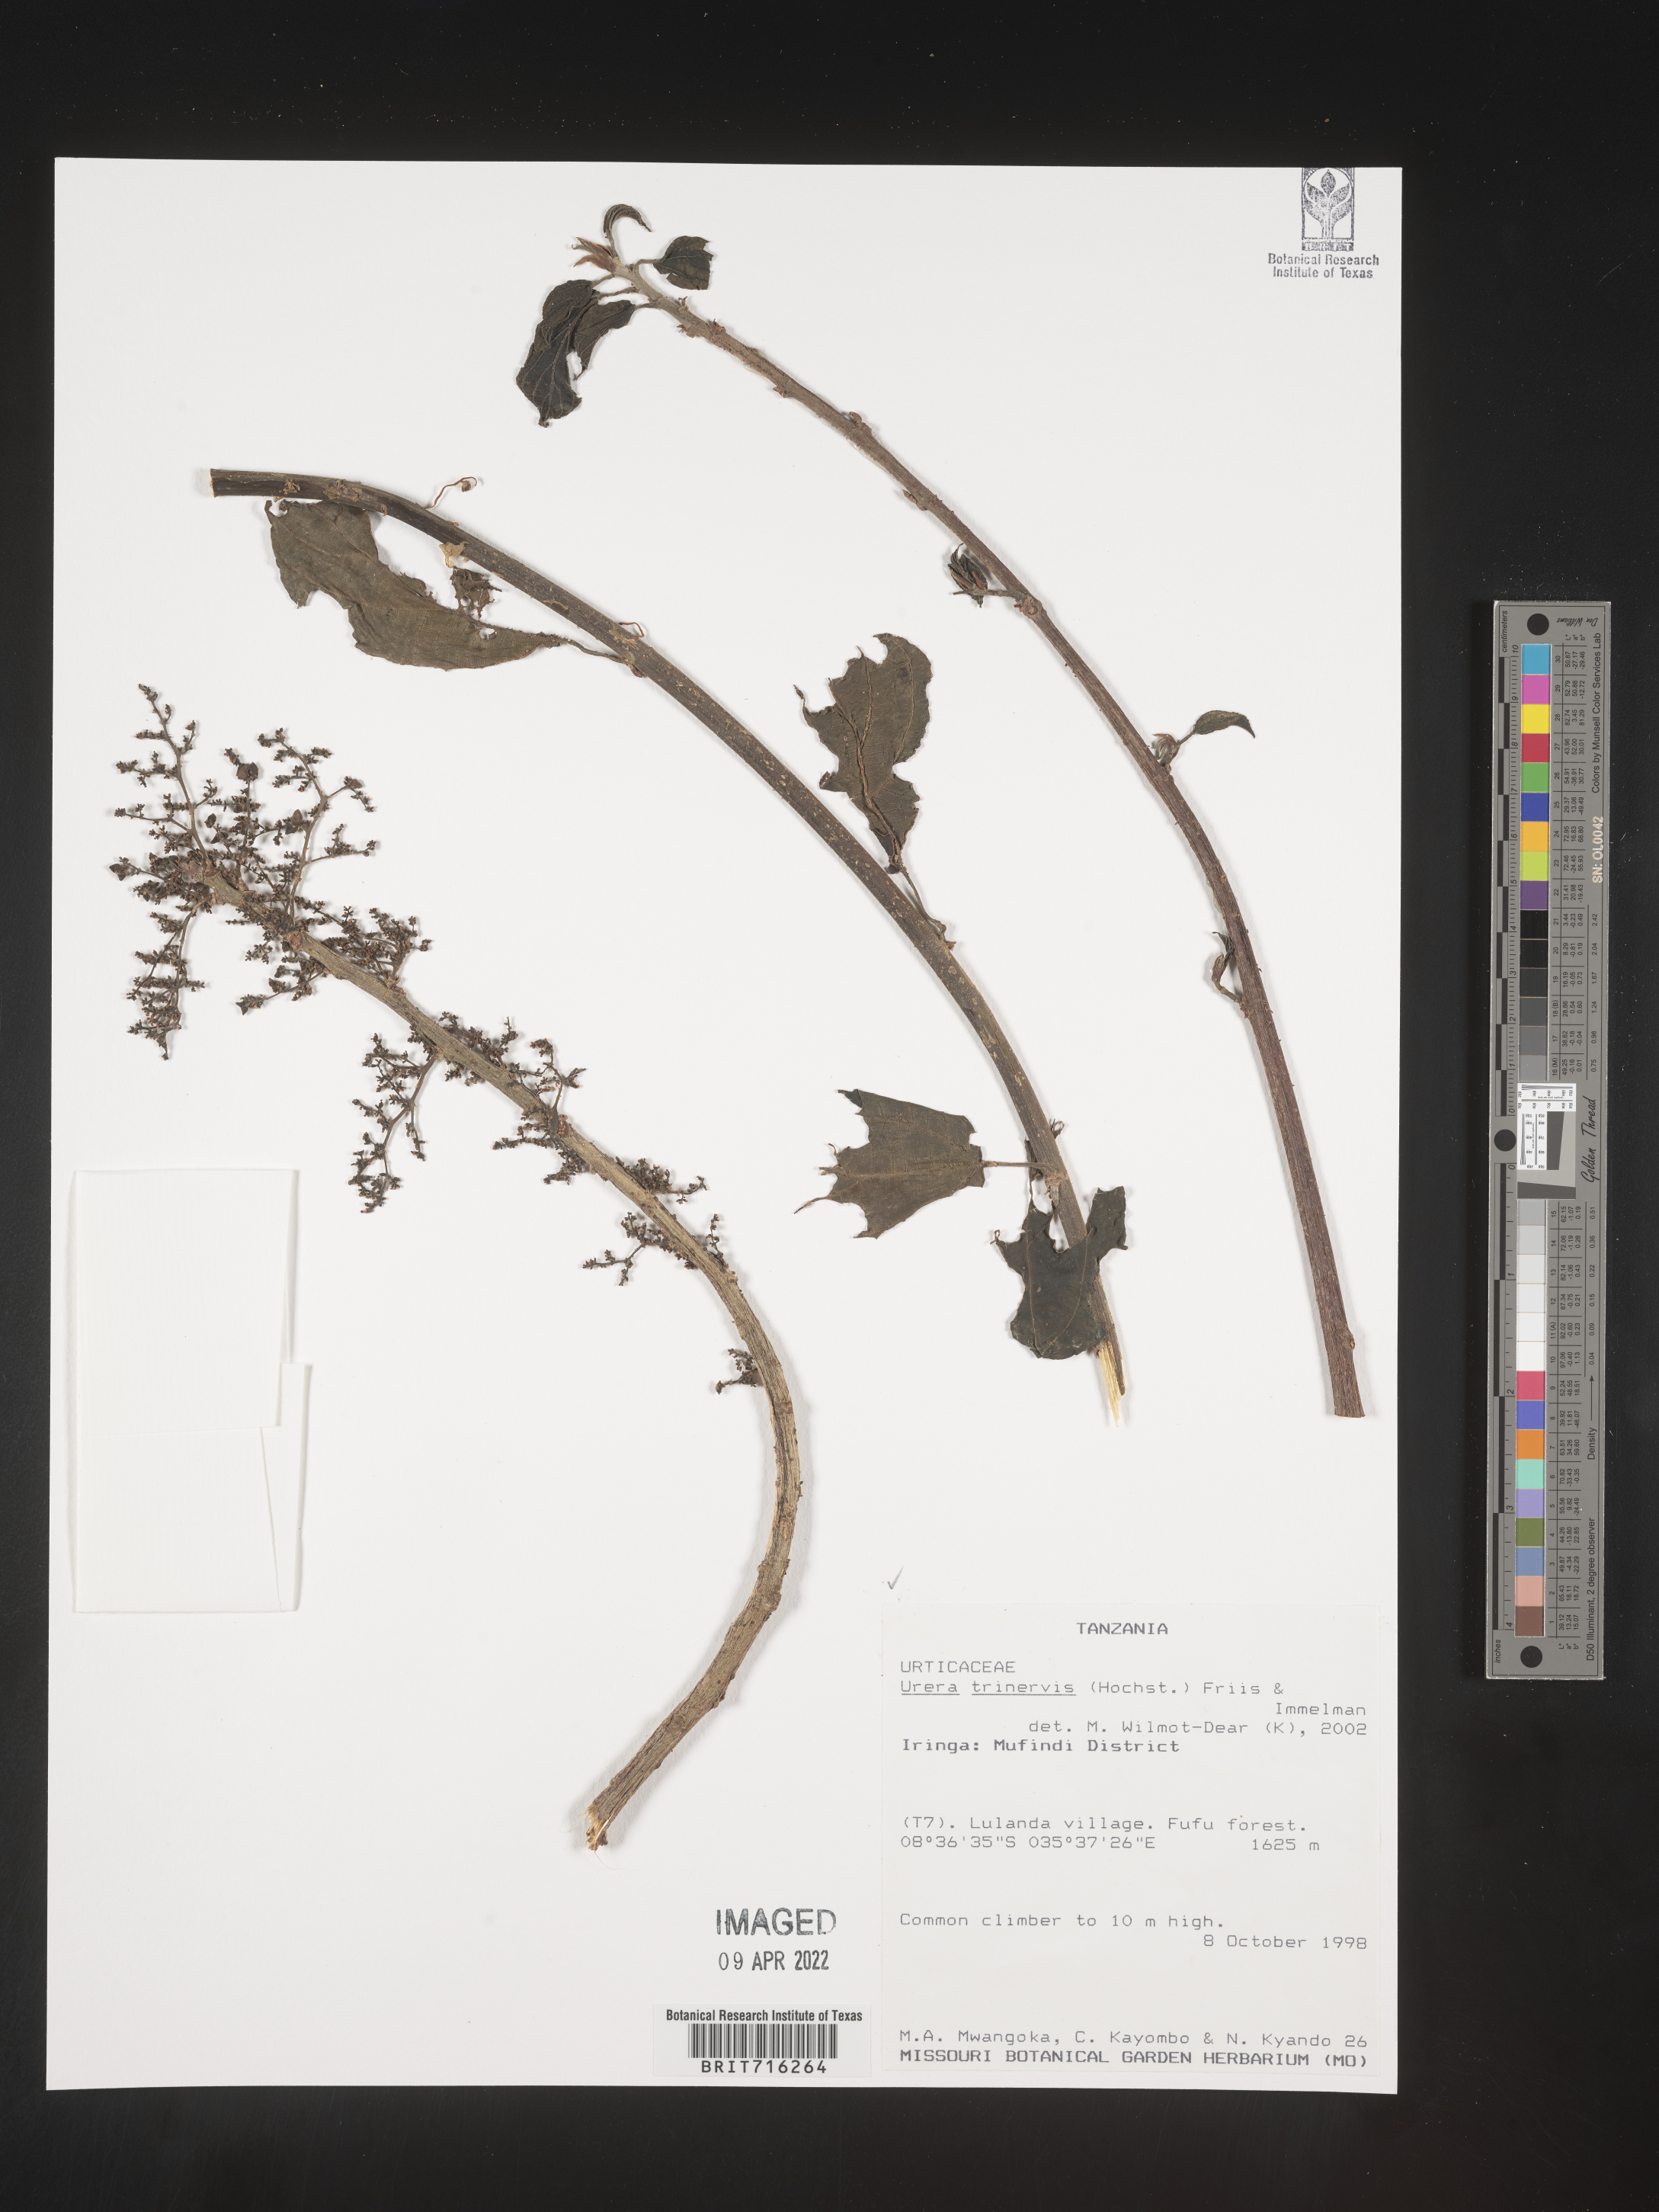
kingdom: Plantae
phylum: Tracheophyta
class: Magnoliopsida
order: Rosales
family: Urticaceae
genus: Urera
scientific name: Urera
